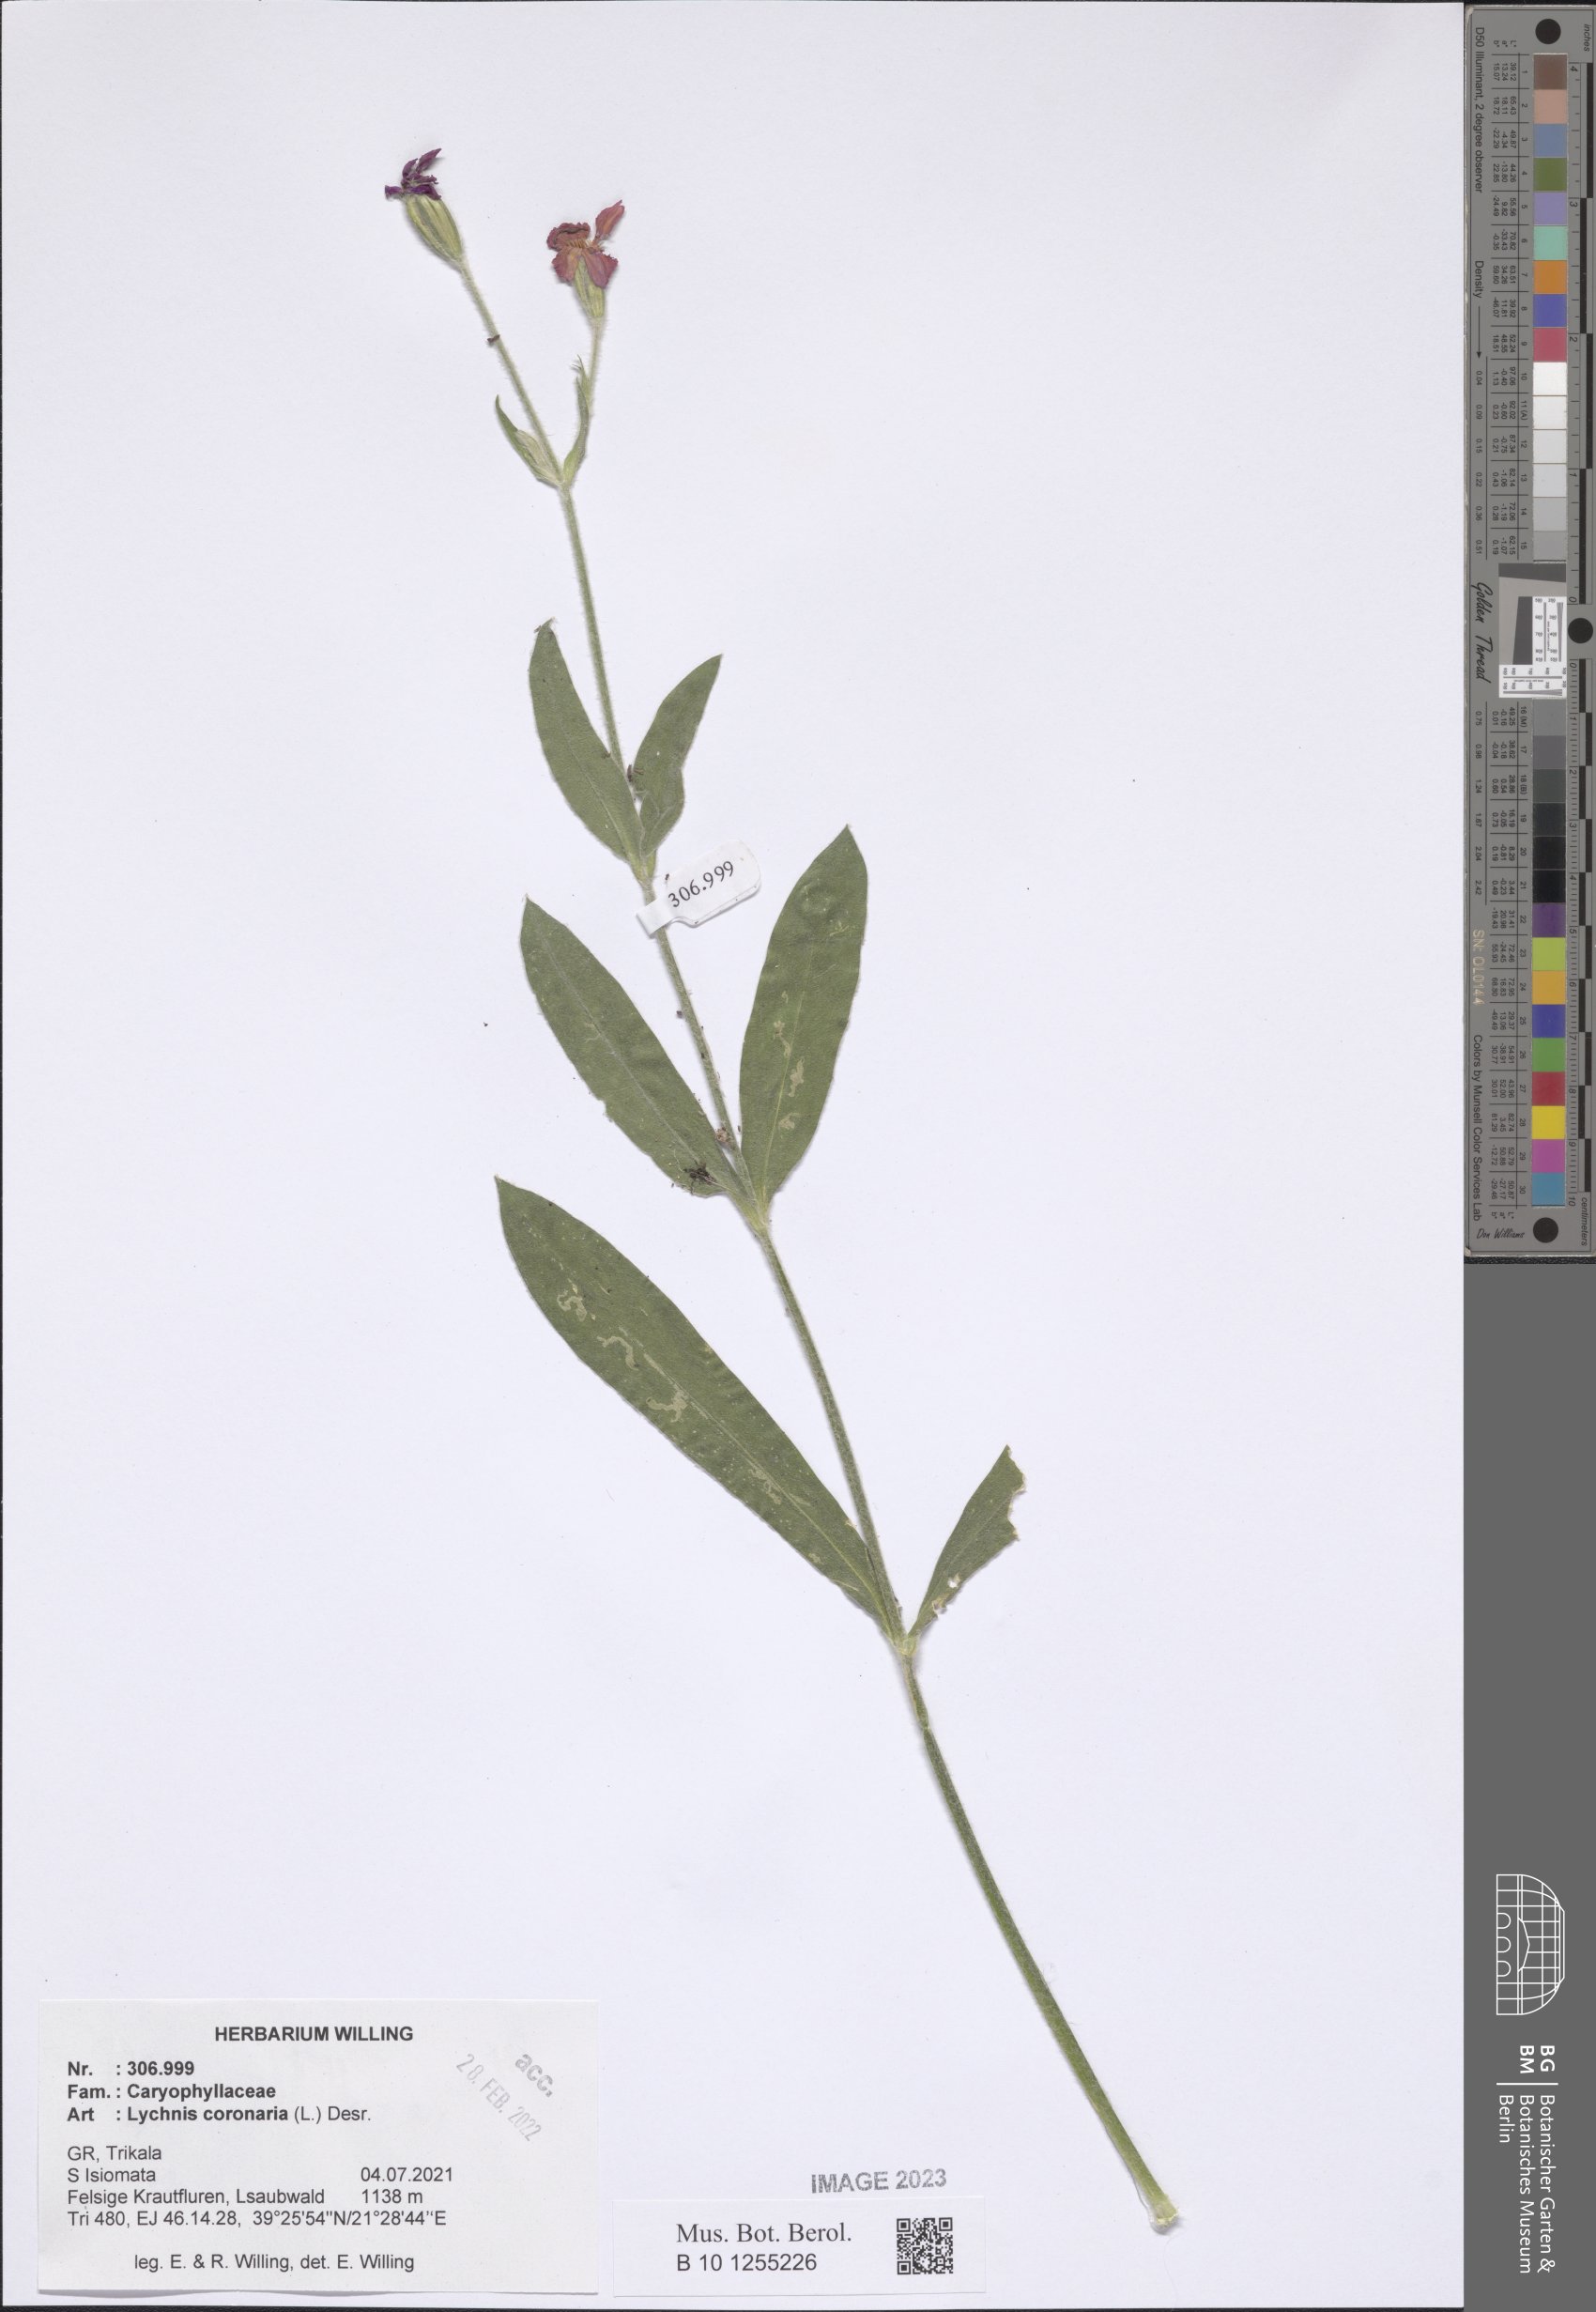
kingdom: Plantae
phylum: Tracheophyta
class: Magnoliopsida
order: Caryophyllales
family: Caryophyllaceae
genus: Silene
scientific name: Silene coronaria
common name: Rose campion
